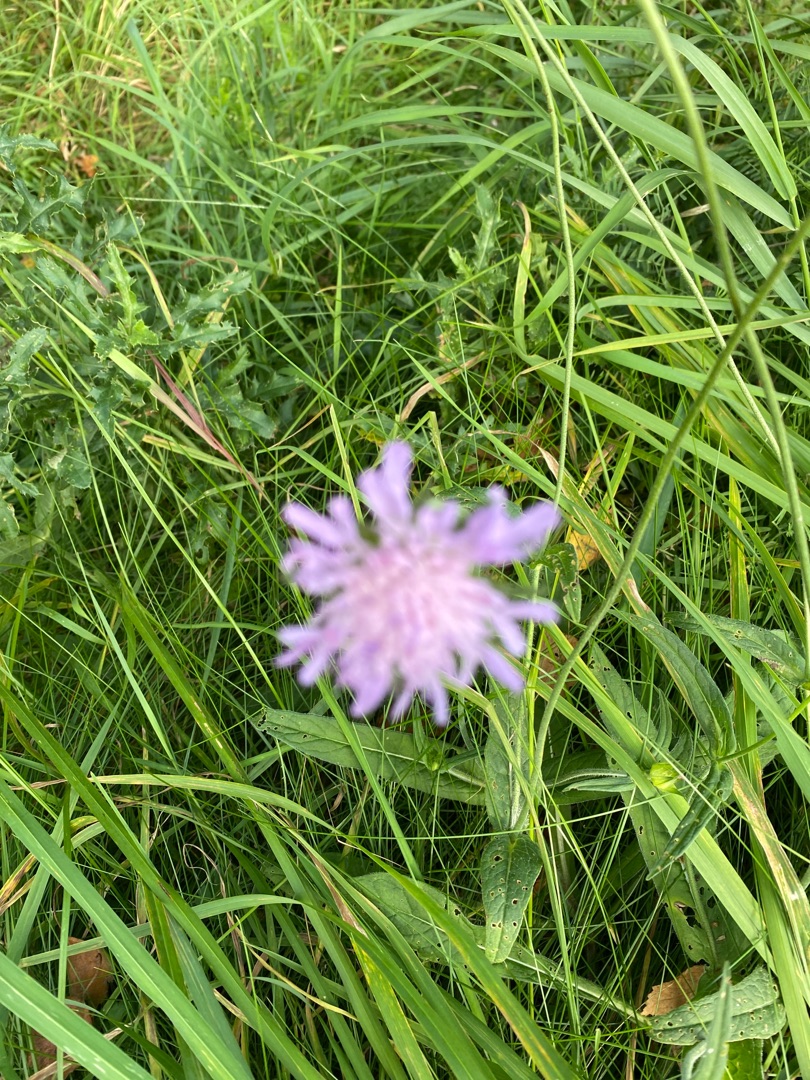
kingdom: Plantae
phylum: Tracheophyta
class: Magnoliopsida
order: Dipsacales
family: Caprifoliaceae
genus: Knautia
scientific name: Knautia arvensis
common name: Blåhat
